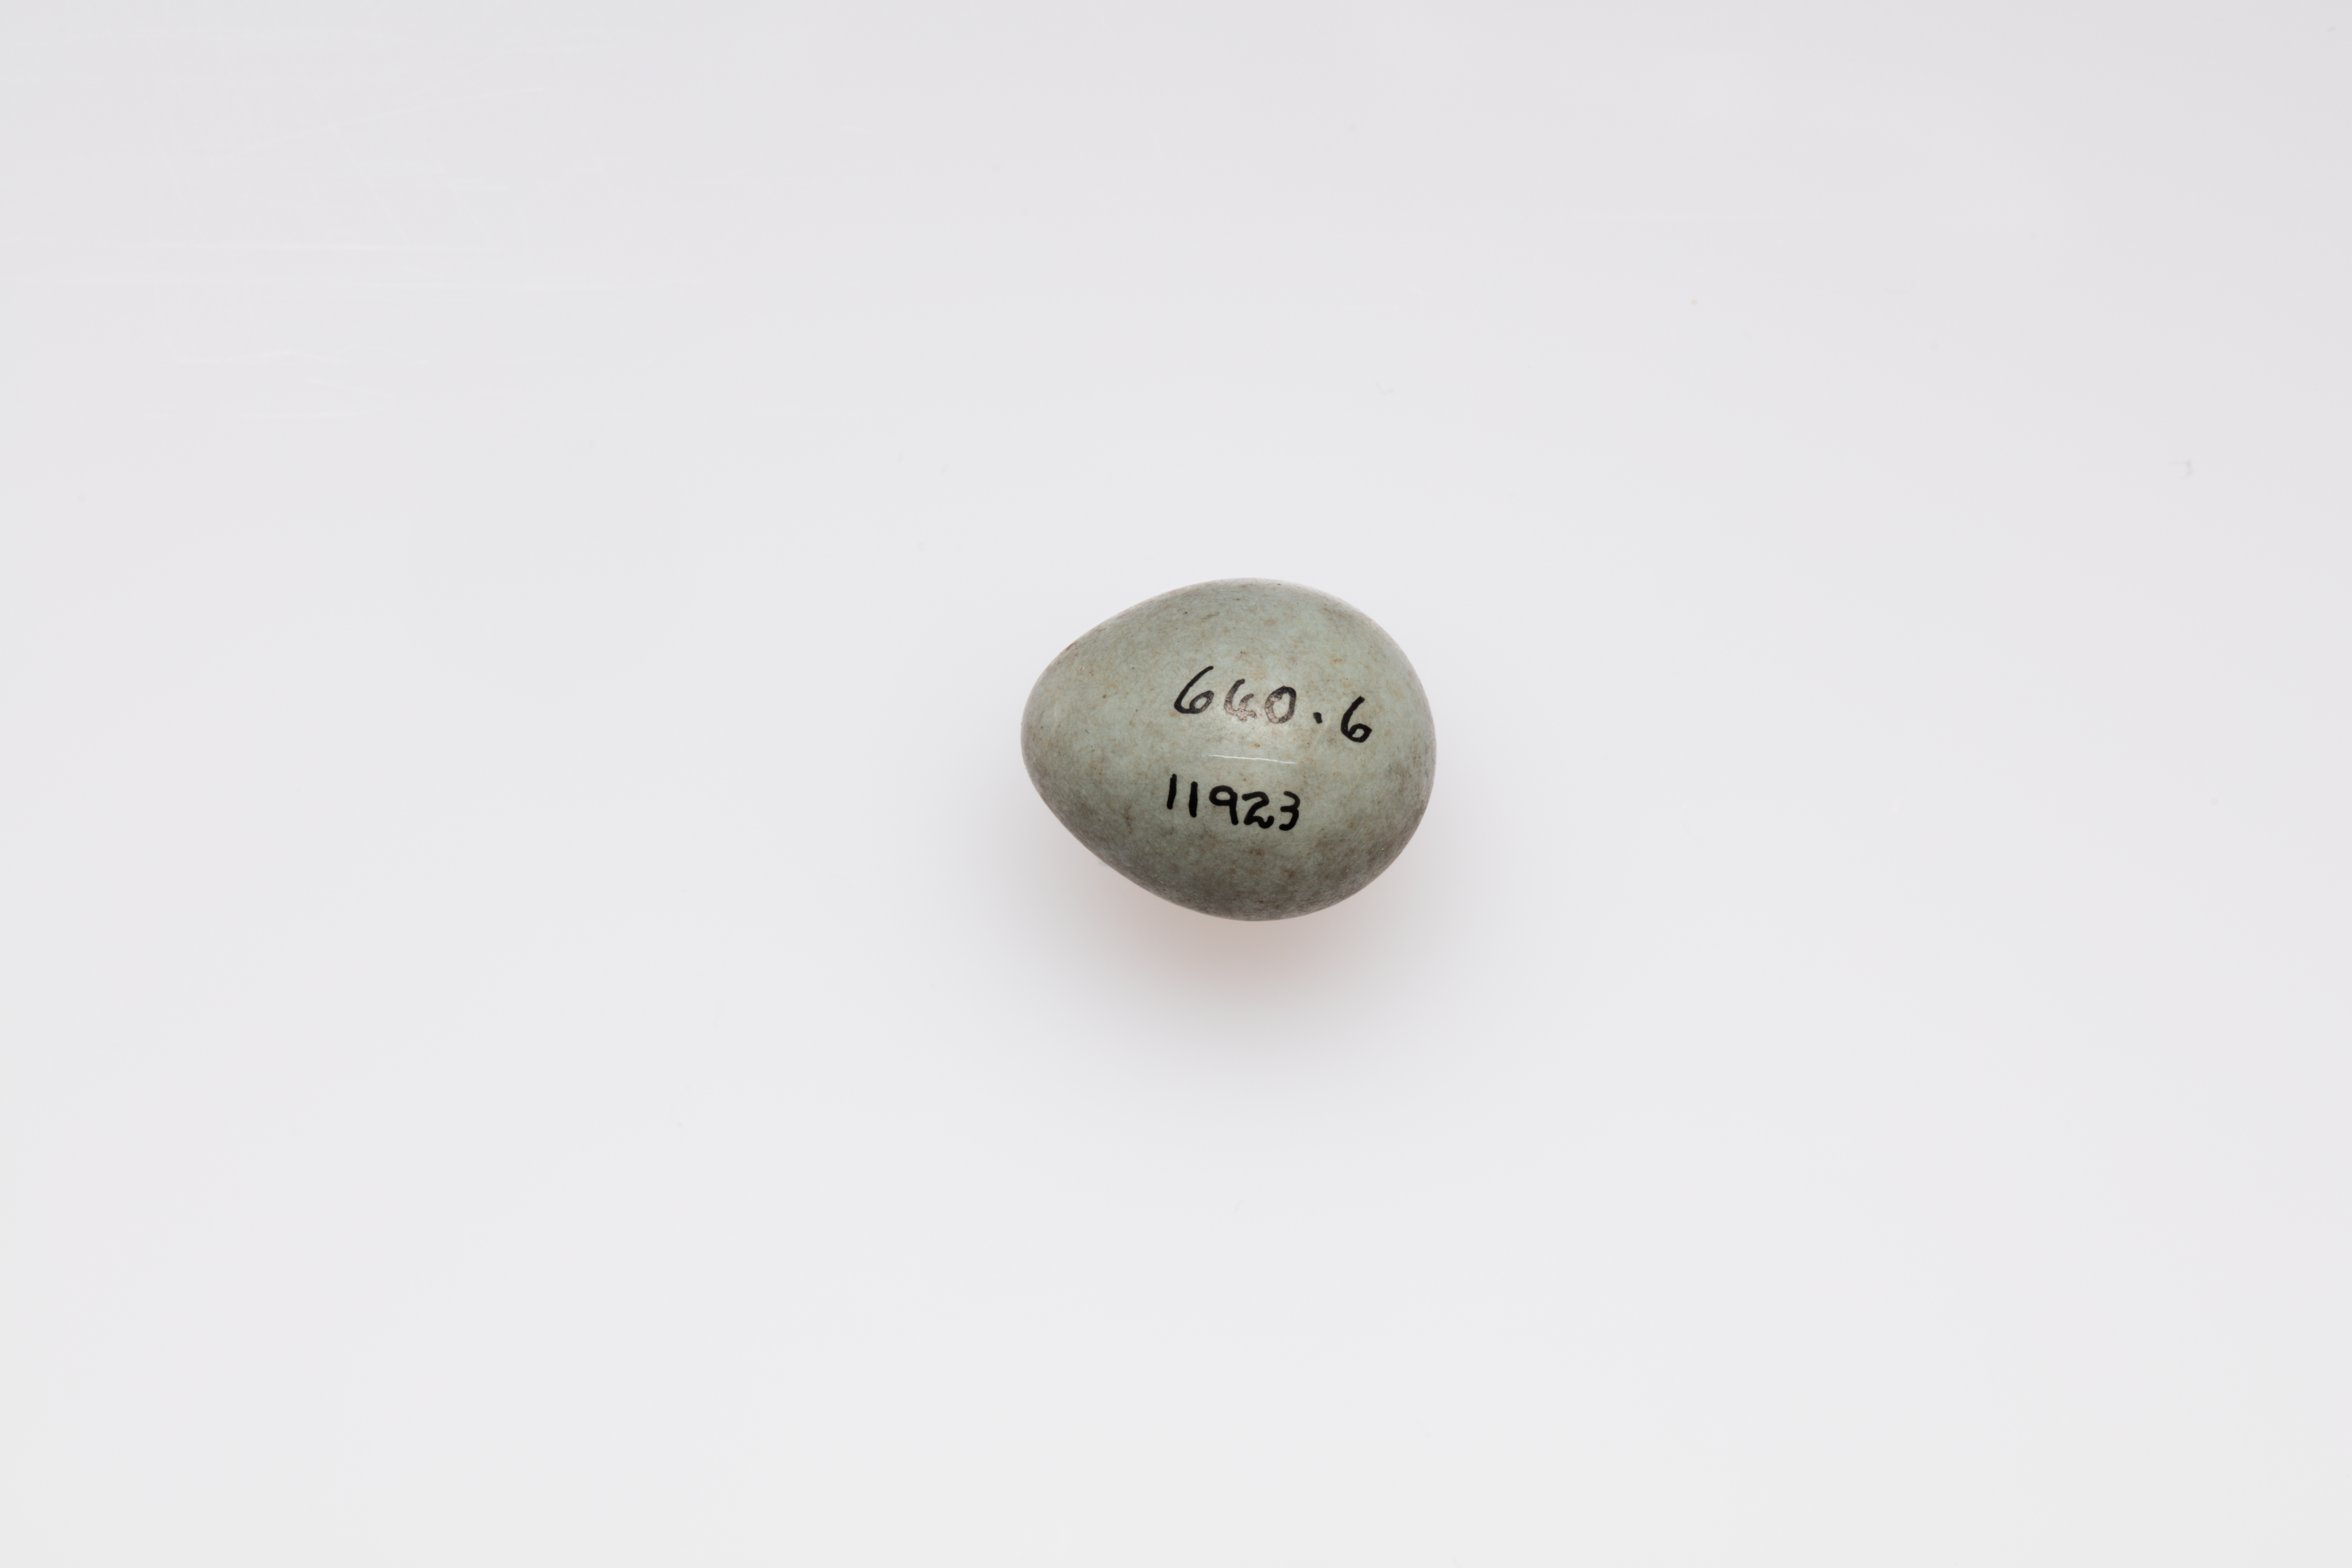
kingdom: Animalia
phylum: Chordata
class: Aves
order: Passeriformes
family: Muscicapidae
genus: Saxicola
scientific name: Saxicola torquatus
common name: African stonechat
